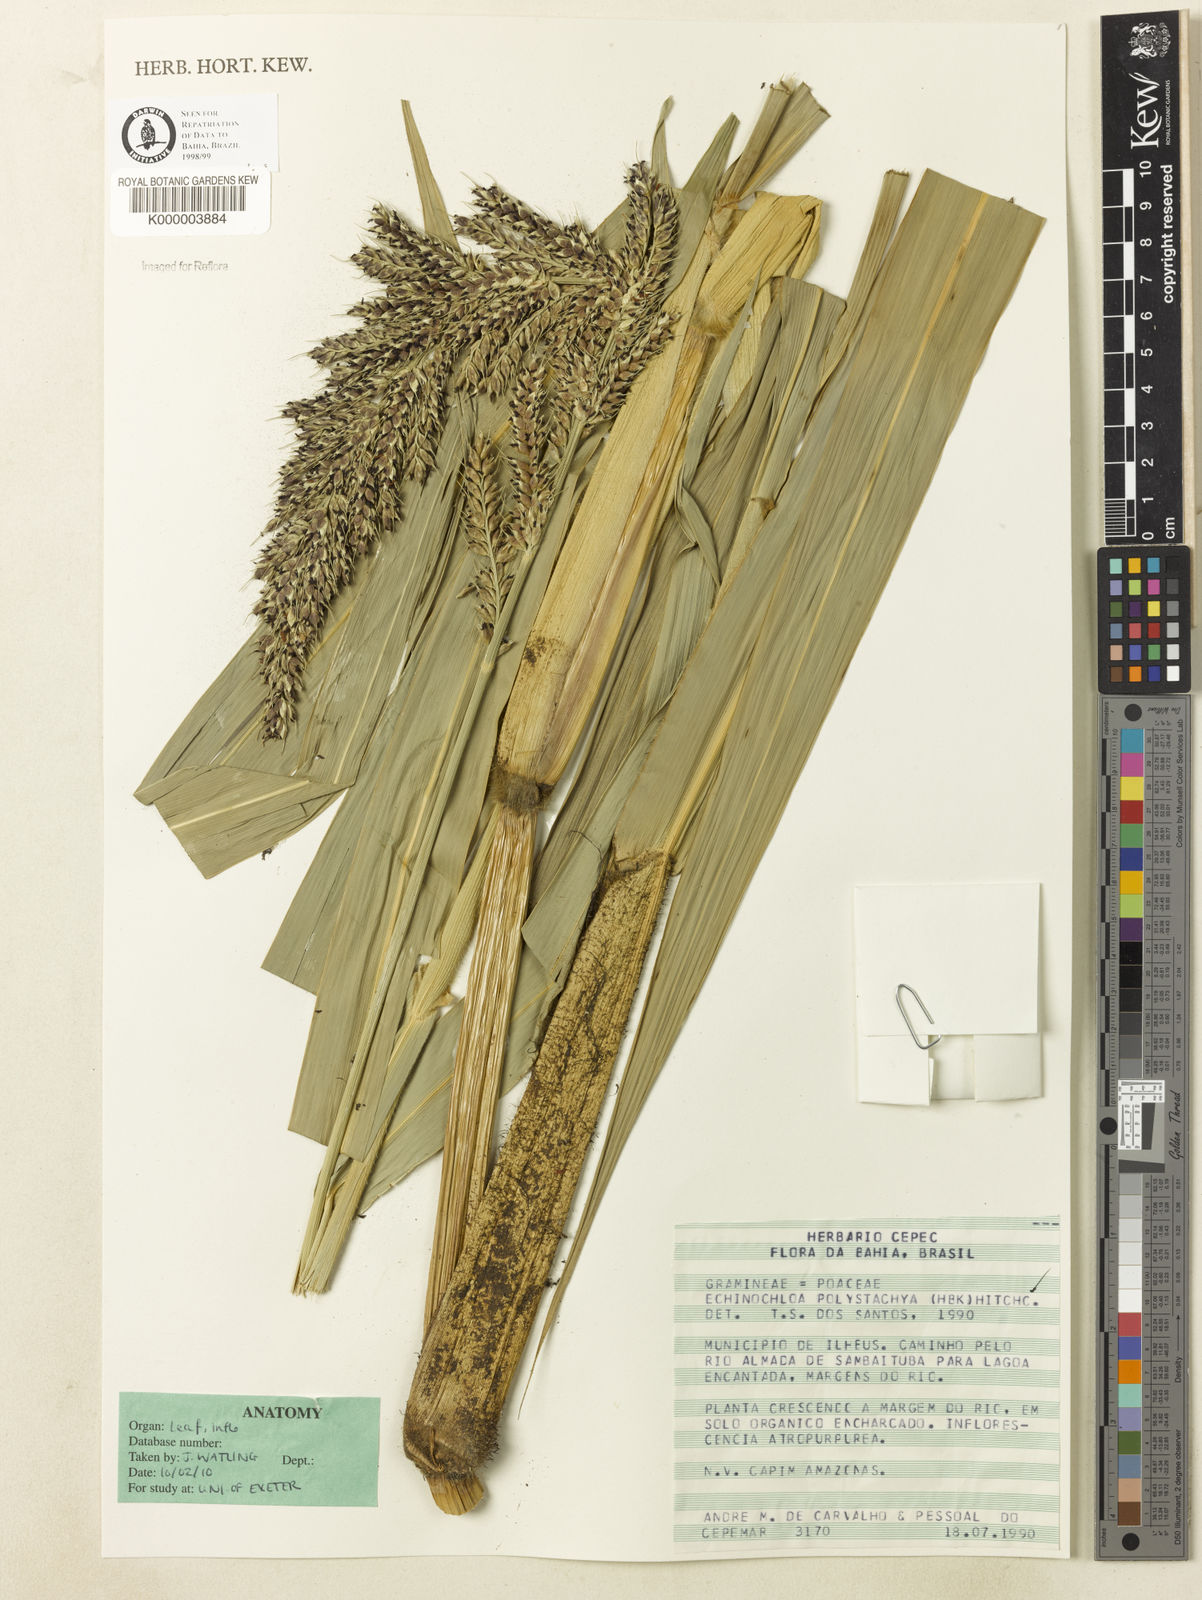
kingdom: Plantae
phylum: Tracheophyta
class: Liliopsida
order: Poales
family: Poaceae
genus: Echinochloa
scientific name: Echinochloa polystachya
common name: Creeping river grass
